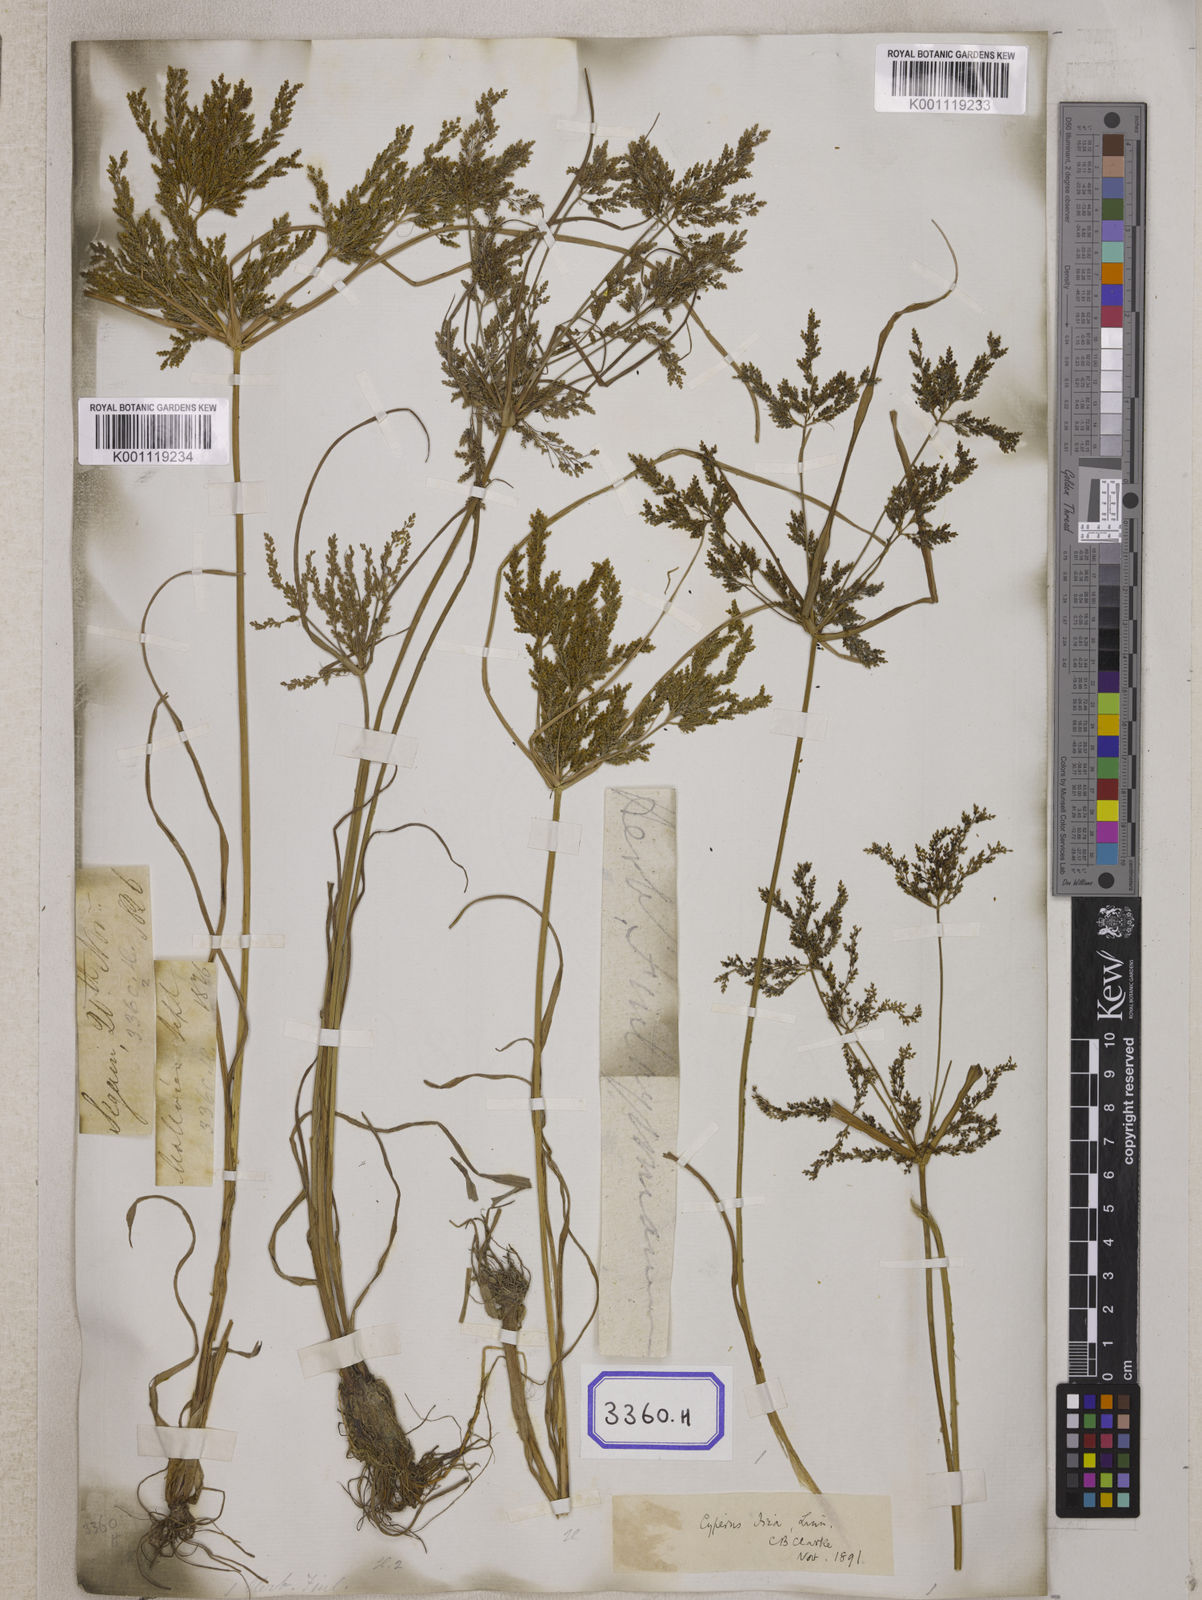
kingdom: Plantae
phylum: Tracheophyta
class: Liliopsida
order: Poales
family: Cyperaceae
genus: Cyperus
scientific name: Cyperus
